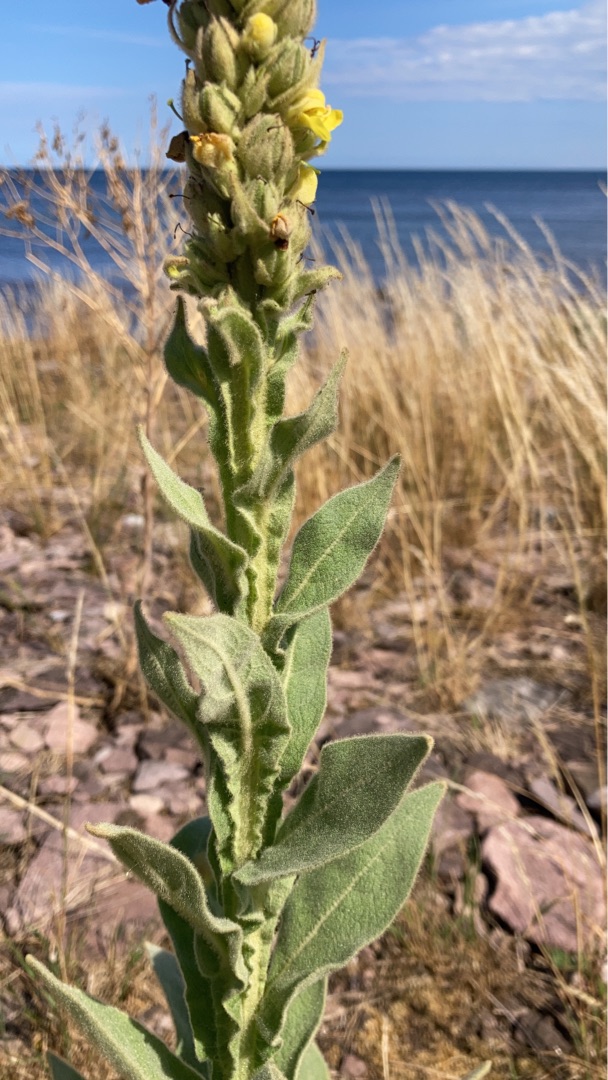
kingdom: Plantae
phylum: Tracheophyta
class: Magnoliopsida
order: Lamiales
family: Scrophulariaceae
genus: Verbascum
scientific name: Verbascum thapsus
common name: Filtbladet kongelys
